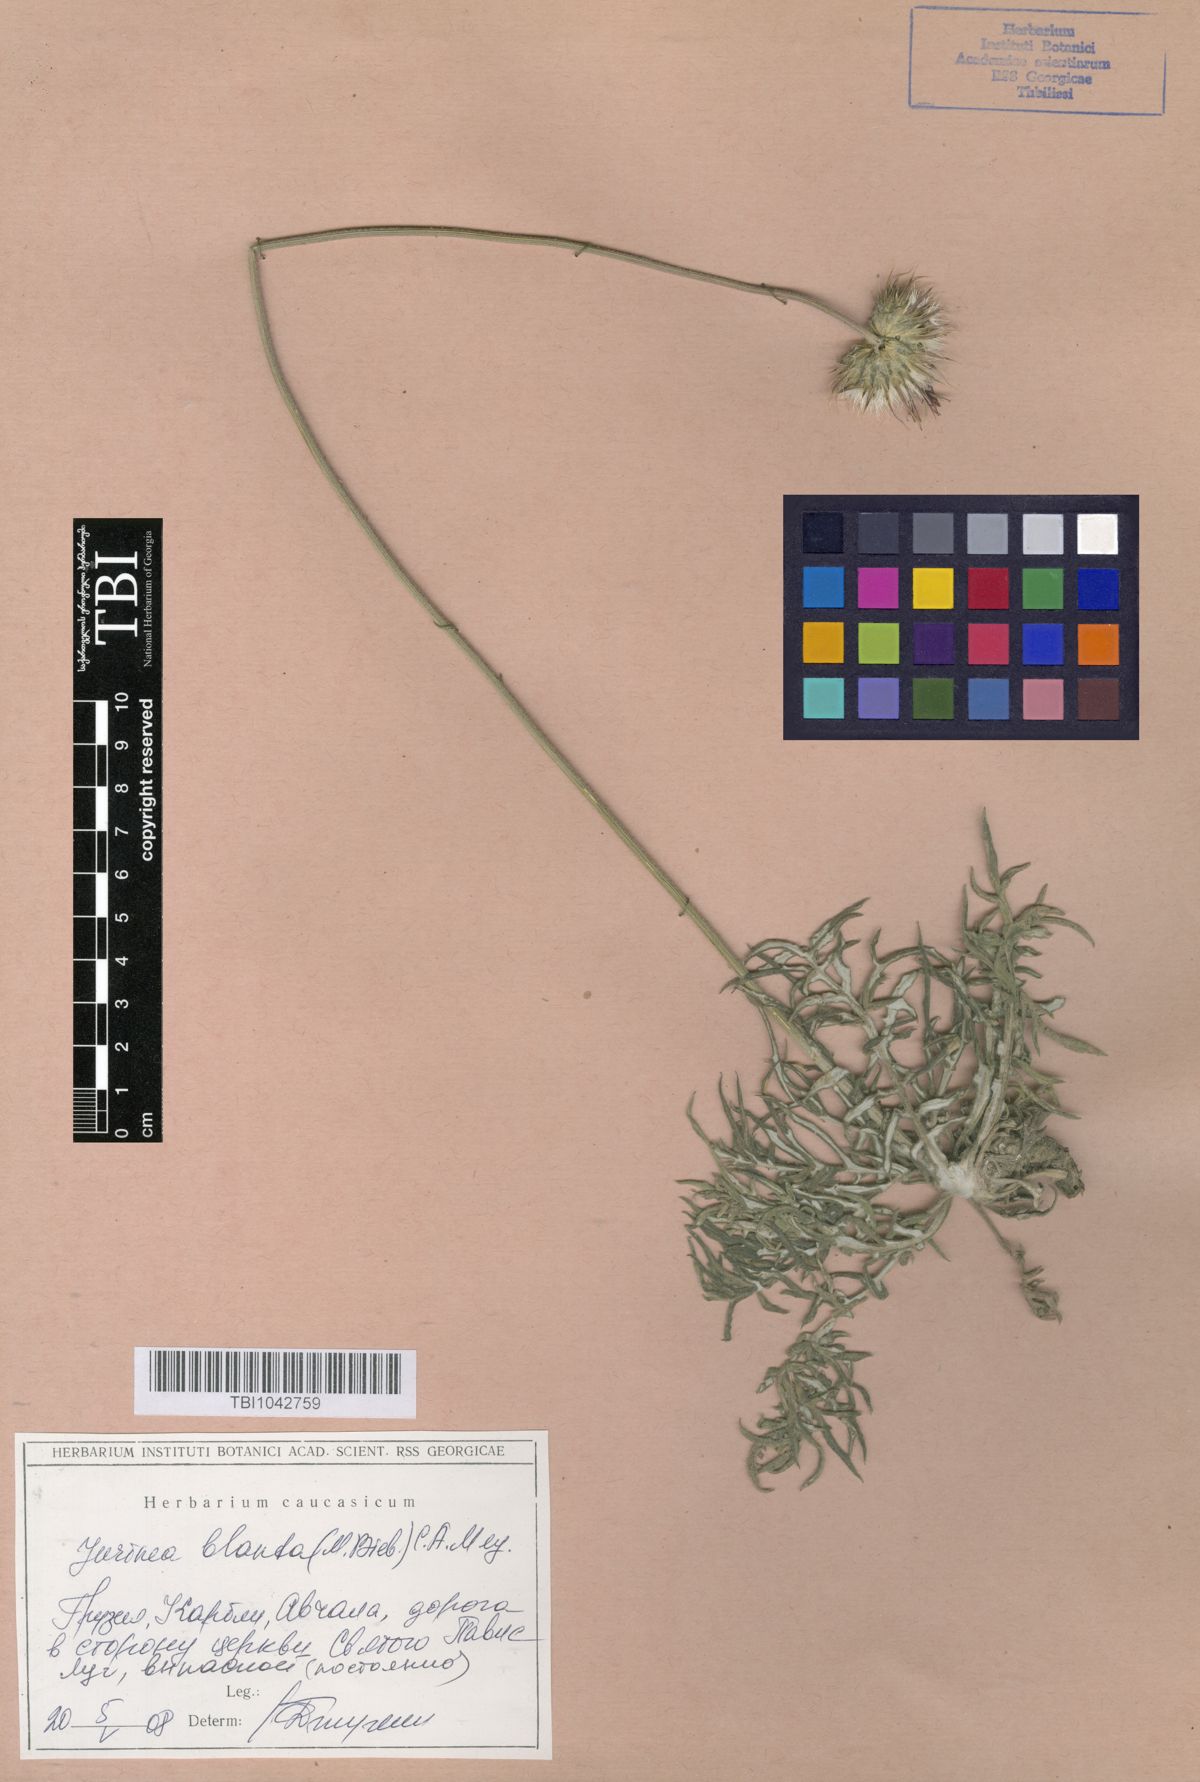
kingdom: Plantae
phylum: Tracheophyta
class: Magnoliopsida
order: Asterales
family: Asteraceae
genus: Jurinea
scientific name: Jurinea blanda
